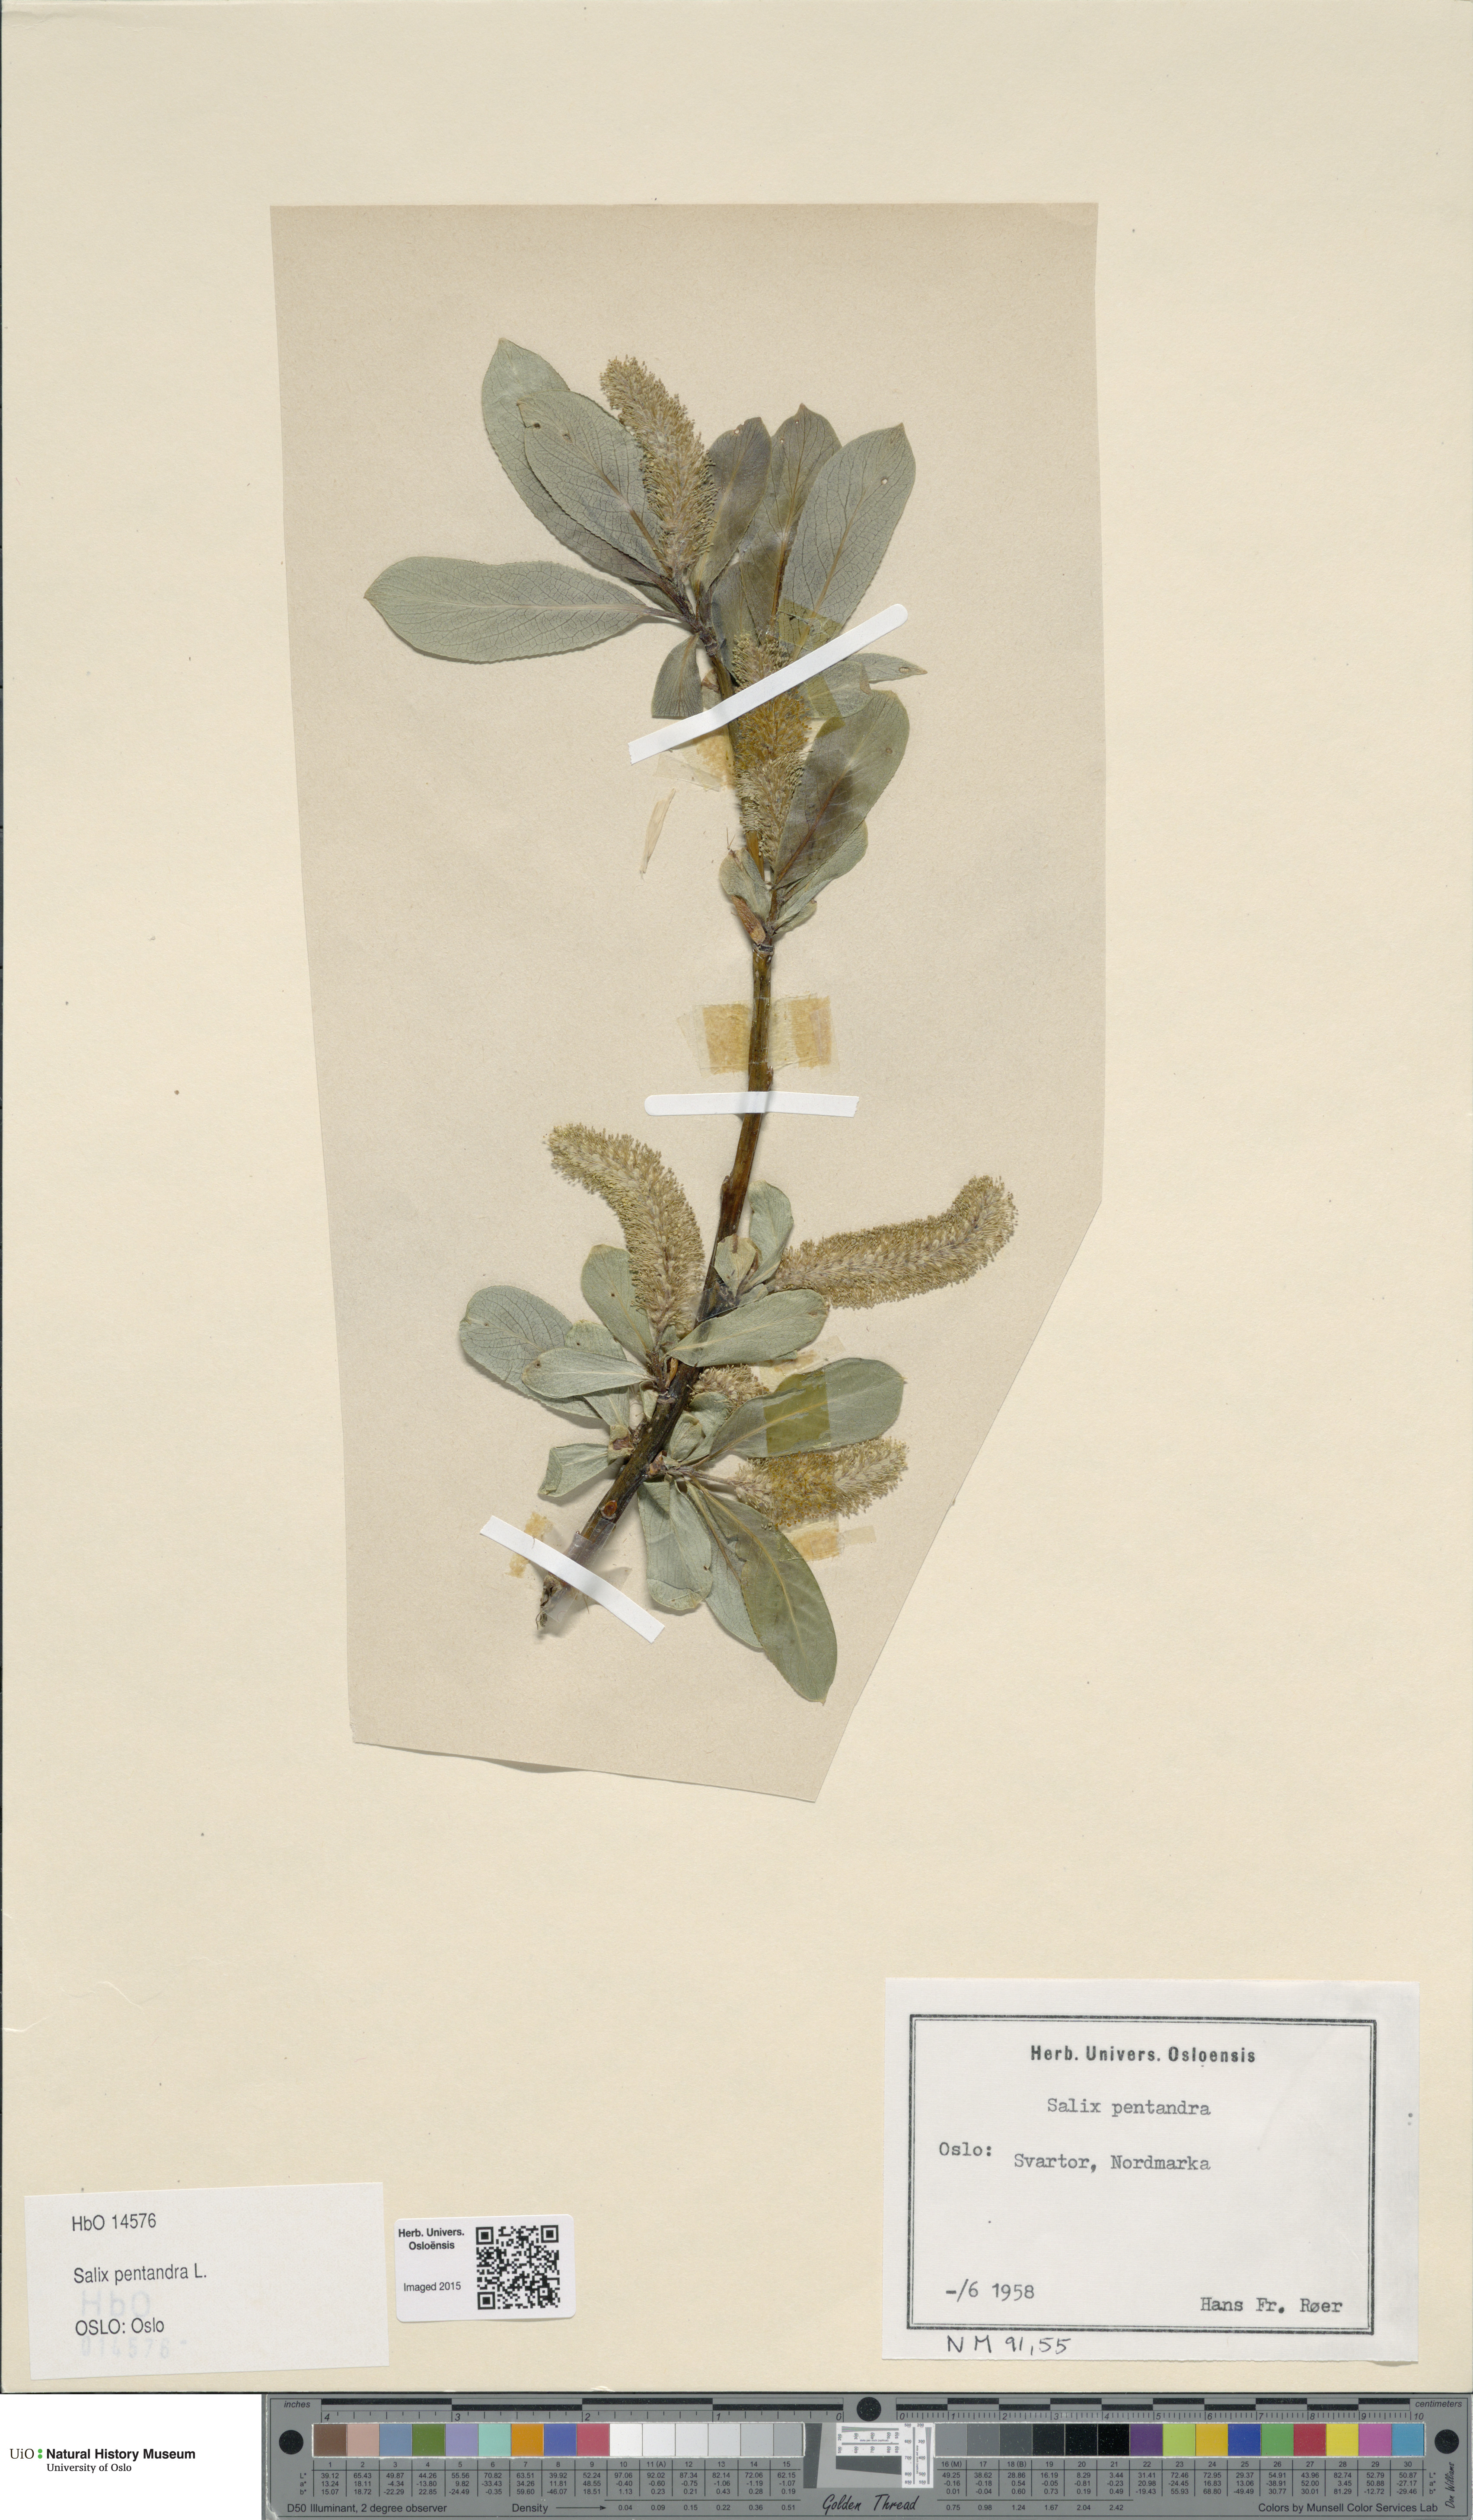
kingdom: Plantae
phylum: Tracheophyta
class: Magnoliopsida
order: Malpighiales
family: Salicaceae
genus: Salix
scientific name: Salix pentandra
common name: Bay willow
